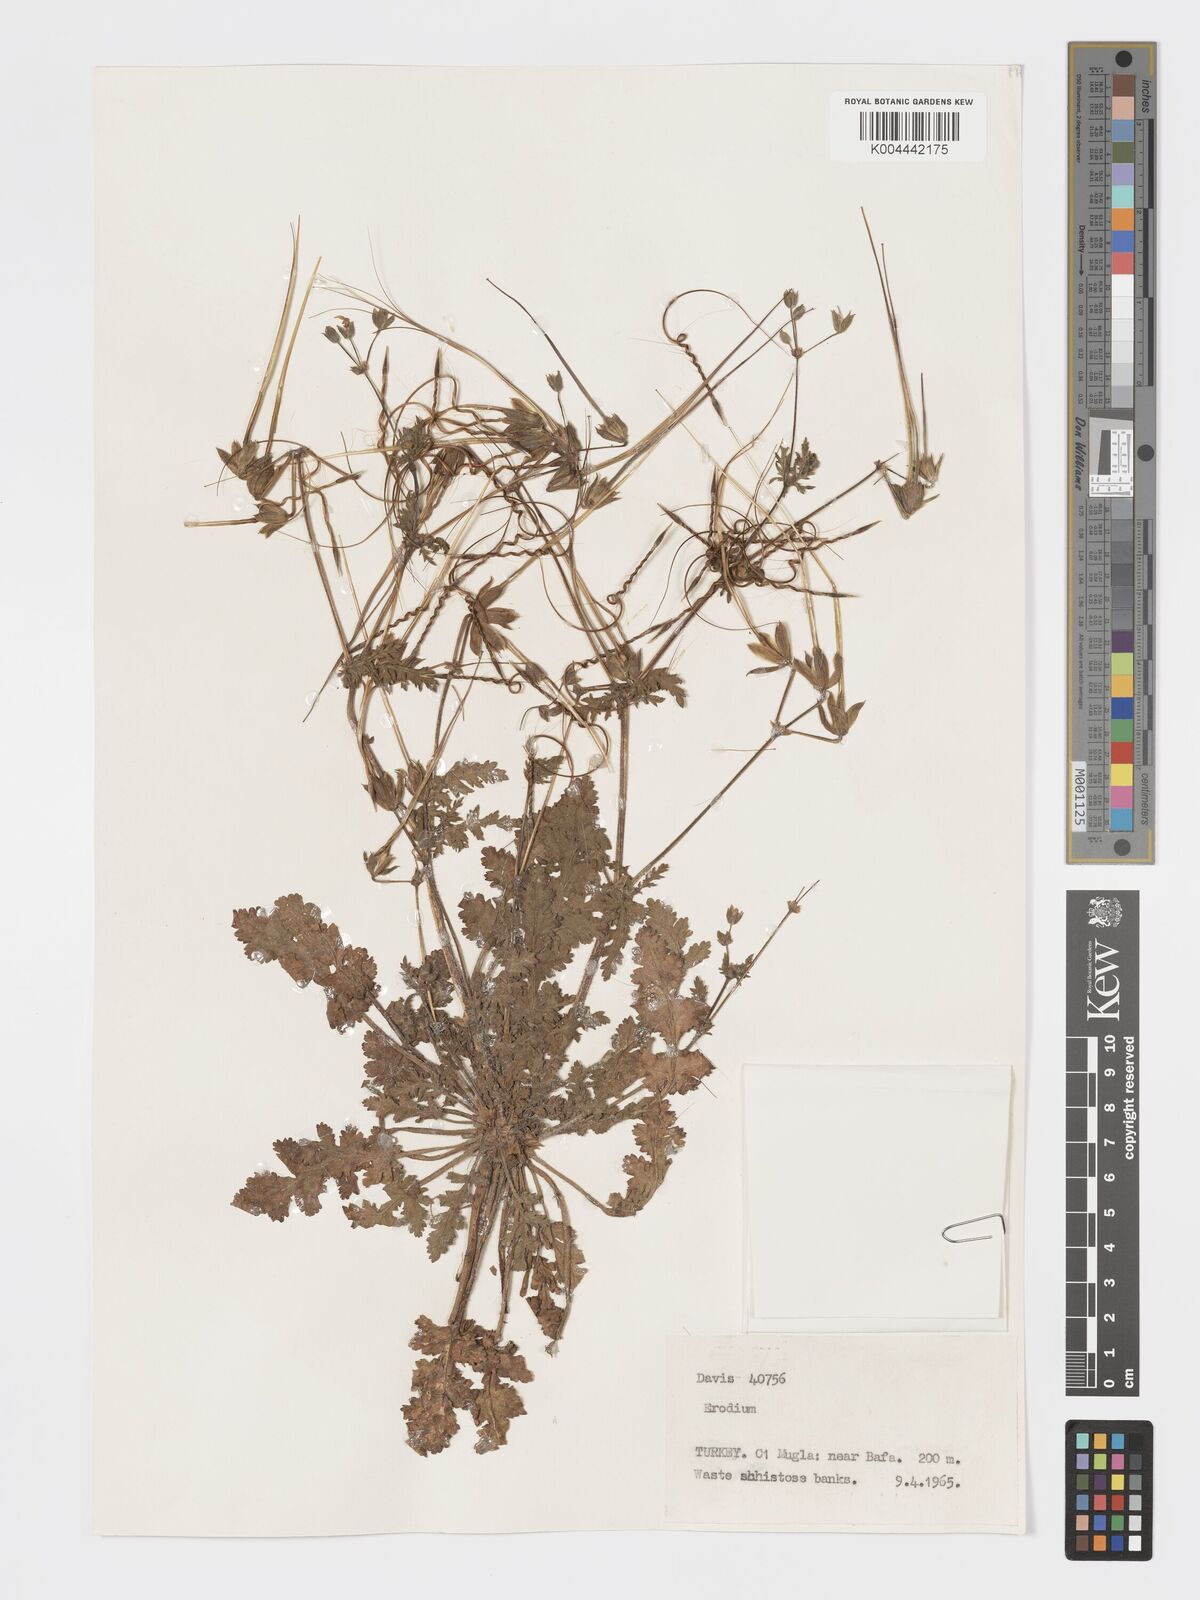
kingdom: Plantae
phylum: Tracheophyta
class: Magnoliopsida
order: Geraniales
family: Geraniaceae
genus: Erodium
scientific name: Erodium
